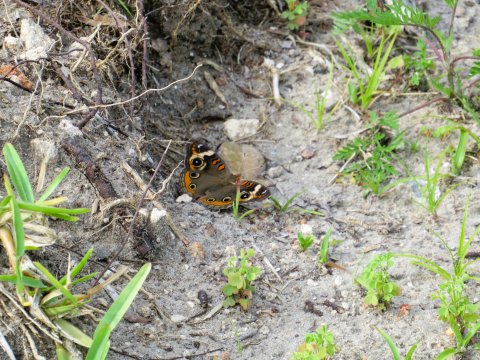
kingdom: Animalia
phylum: Arthropoda
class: Insecta
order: Lepidoptera
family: Nymphalidae
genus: Junonia
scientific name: Junonia coenia
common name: Common Buckeye
